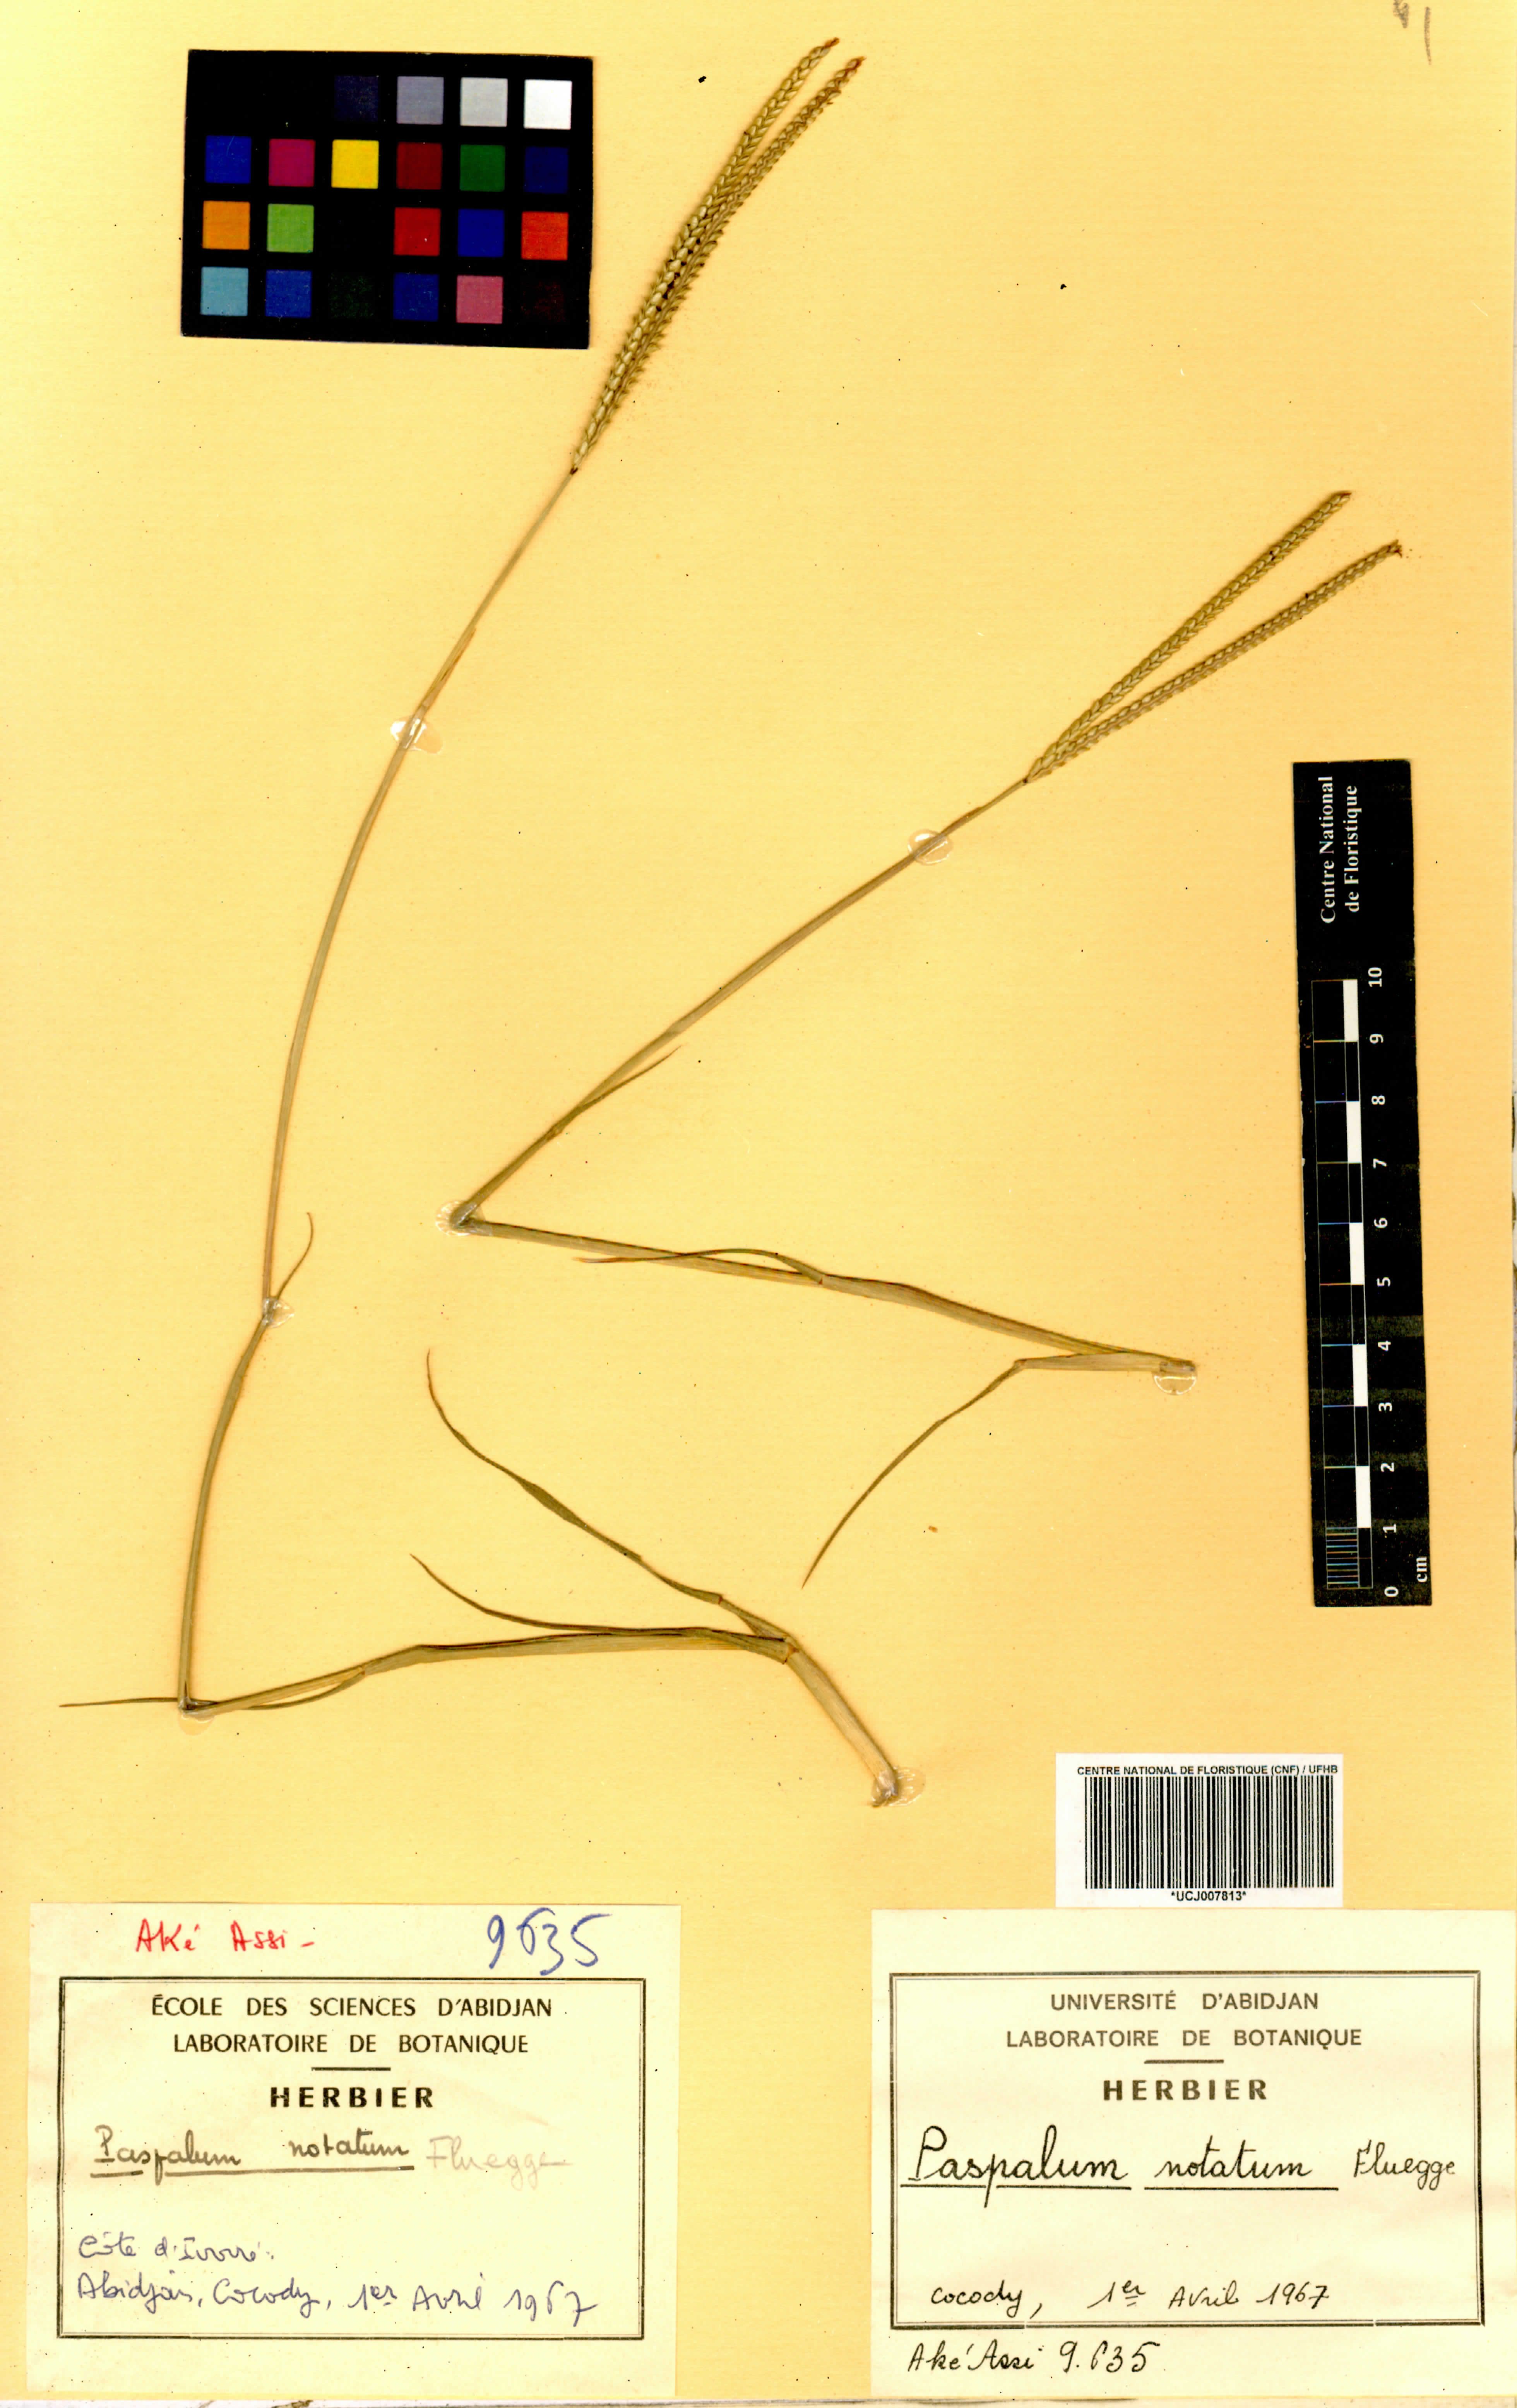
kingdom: Plantae
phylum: Tracheophyta
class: Liliopsida
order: Poales
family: Poaceae
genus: Paspalum
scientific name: Paspalum notatum
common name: Bahiagrass
